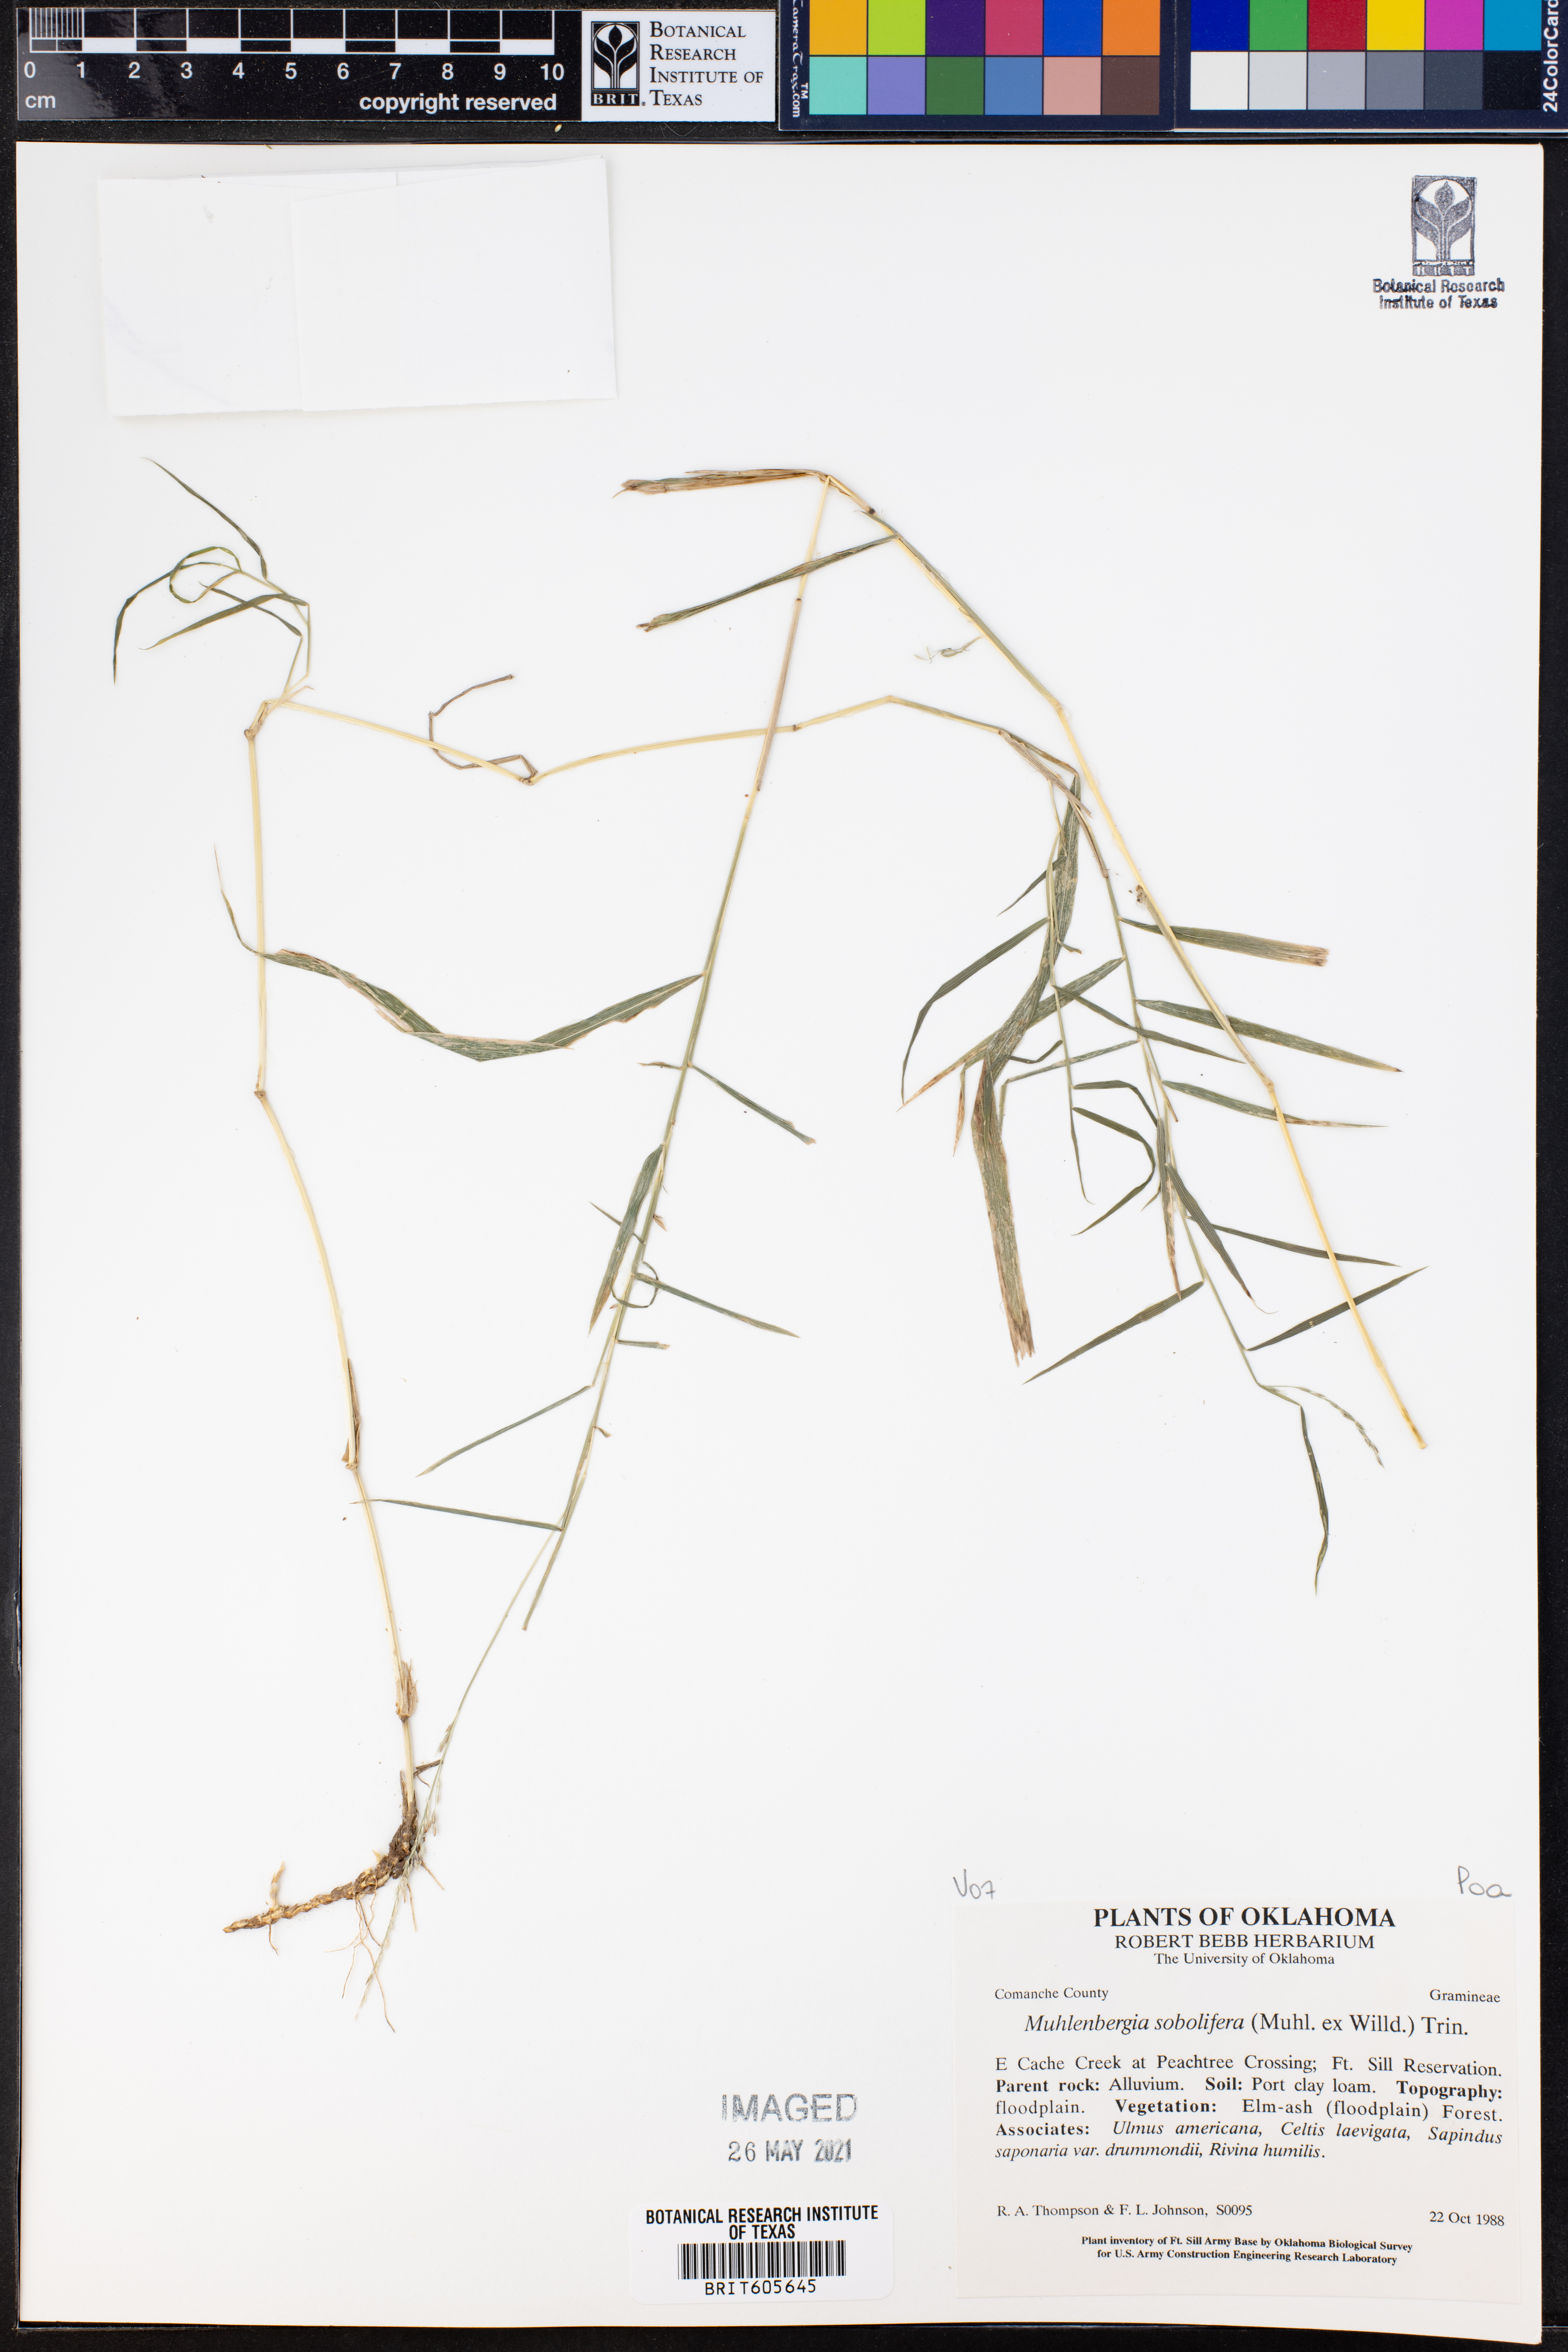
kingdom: Plantae
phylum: Tracheophyta
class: Liliopsida
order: Poales
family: Poaceae
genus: Muhlenbergia
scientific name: Muhlenbergia sobolifera
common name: Creeping muhly
